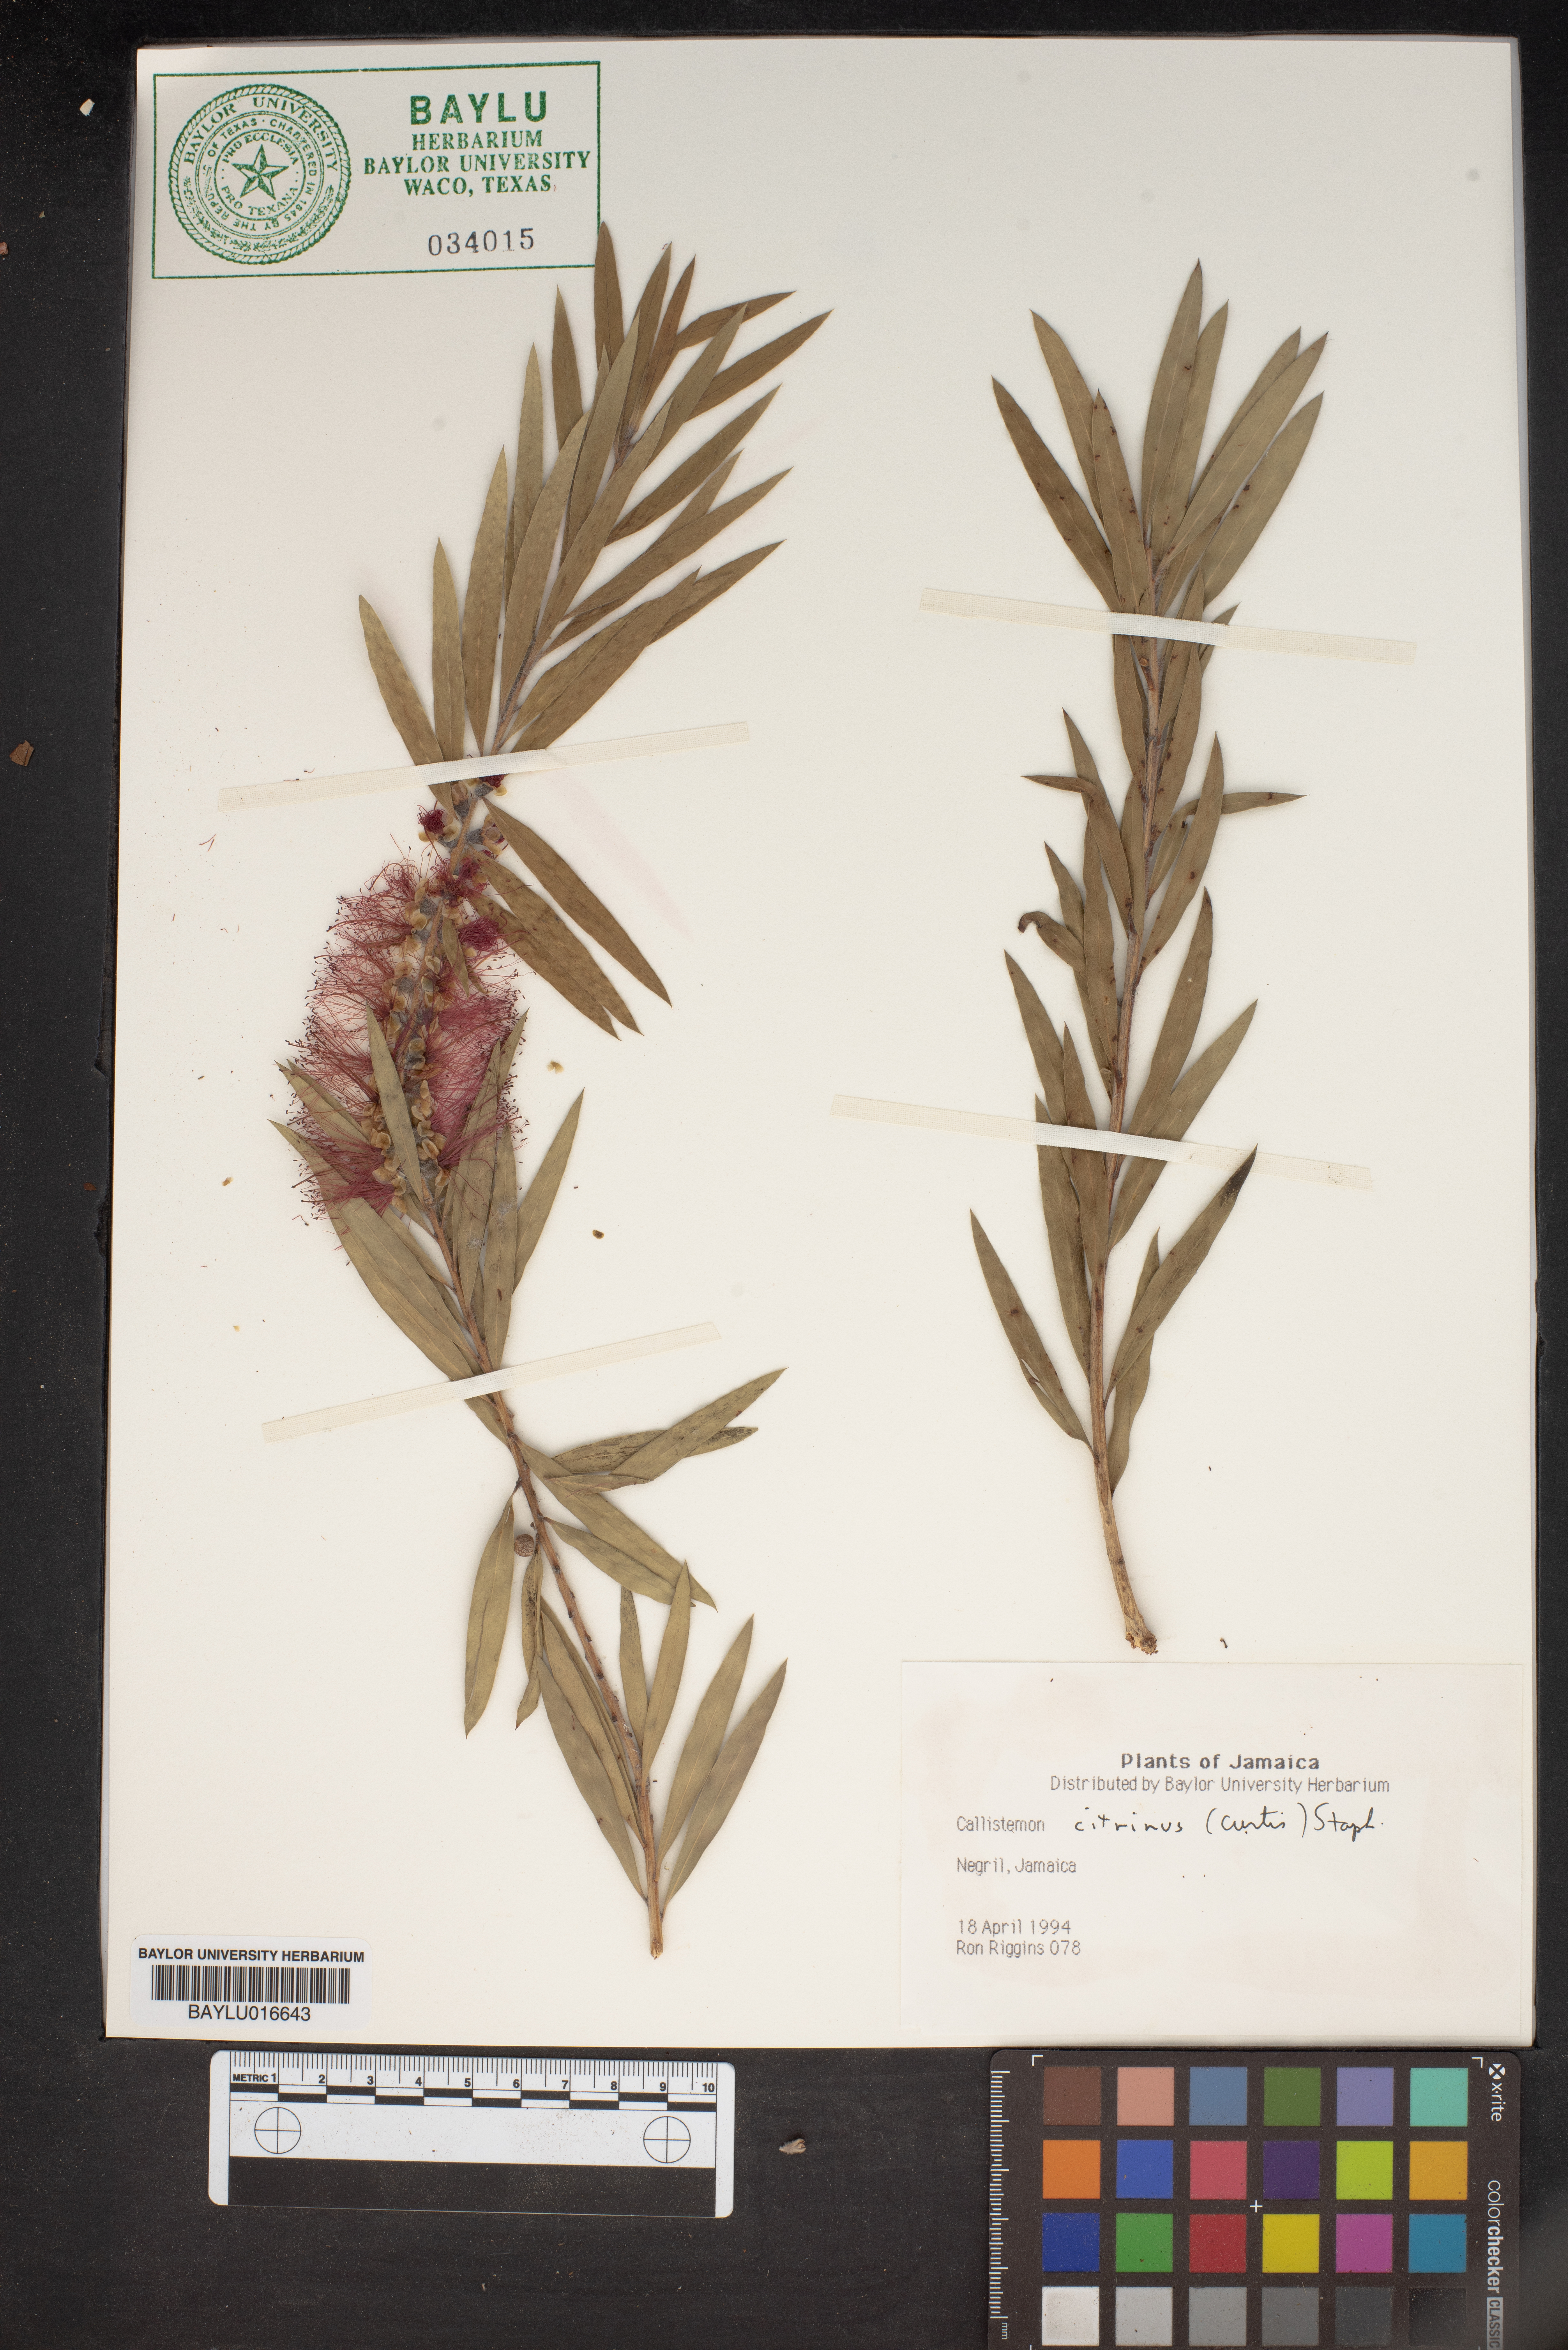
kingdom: Plantae
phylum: Tracheophyta
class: Magnoliopsida
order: Myrtales
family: Myrtaceae
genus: Callistemon
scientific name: Callistemon citrinus
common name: Crimson bottlebrush
